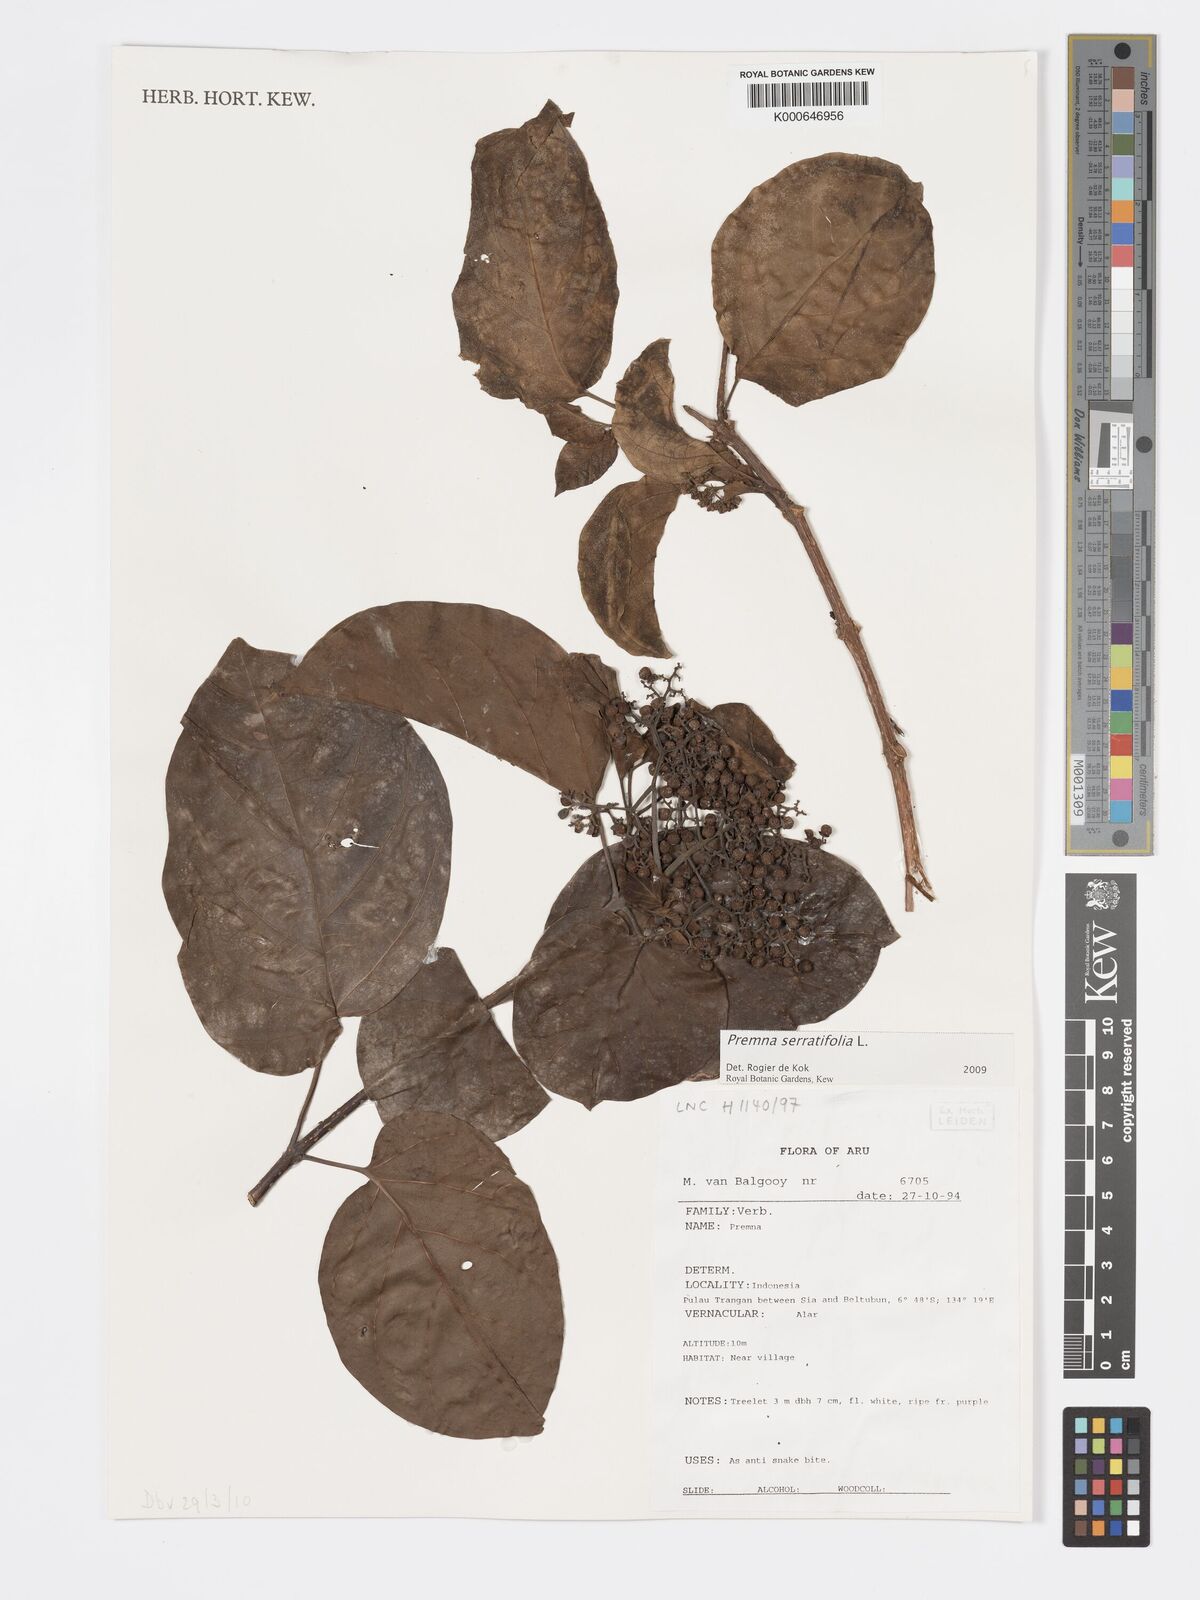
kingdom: Plantae
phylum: Tracheophyta
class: Magnoliopsida
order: Lamiales
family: Lamiaceae
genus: Premna
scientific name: Premna serratifolia
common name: Bastard guelder
